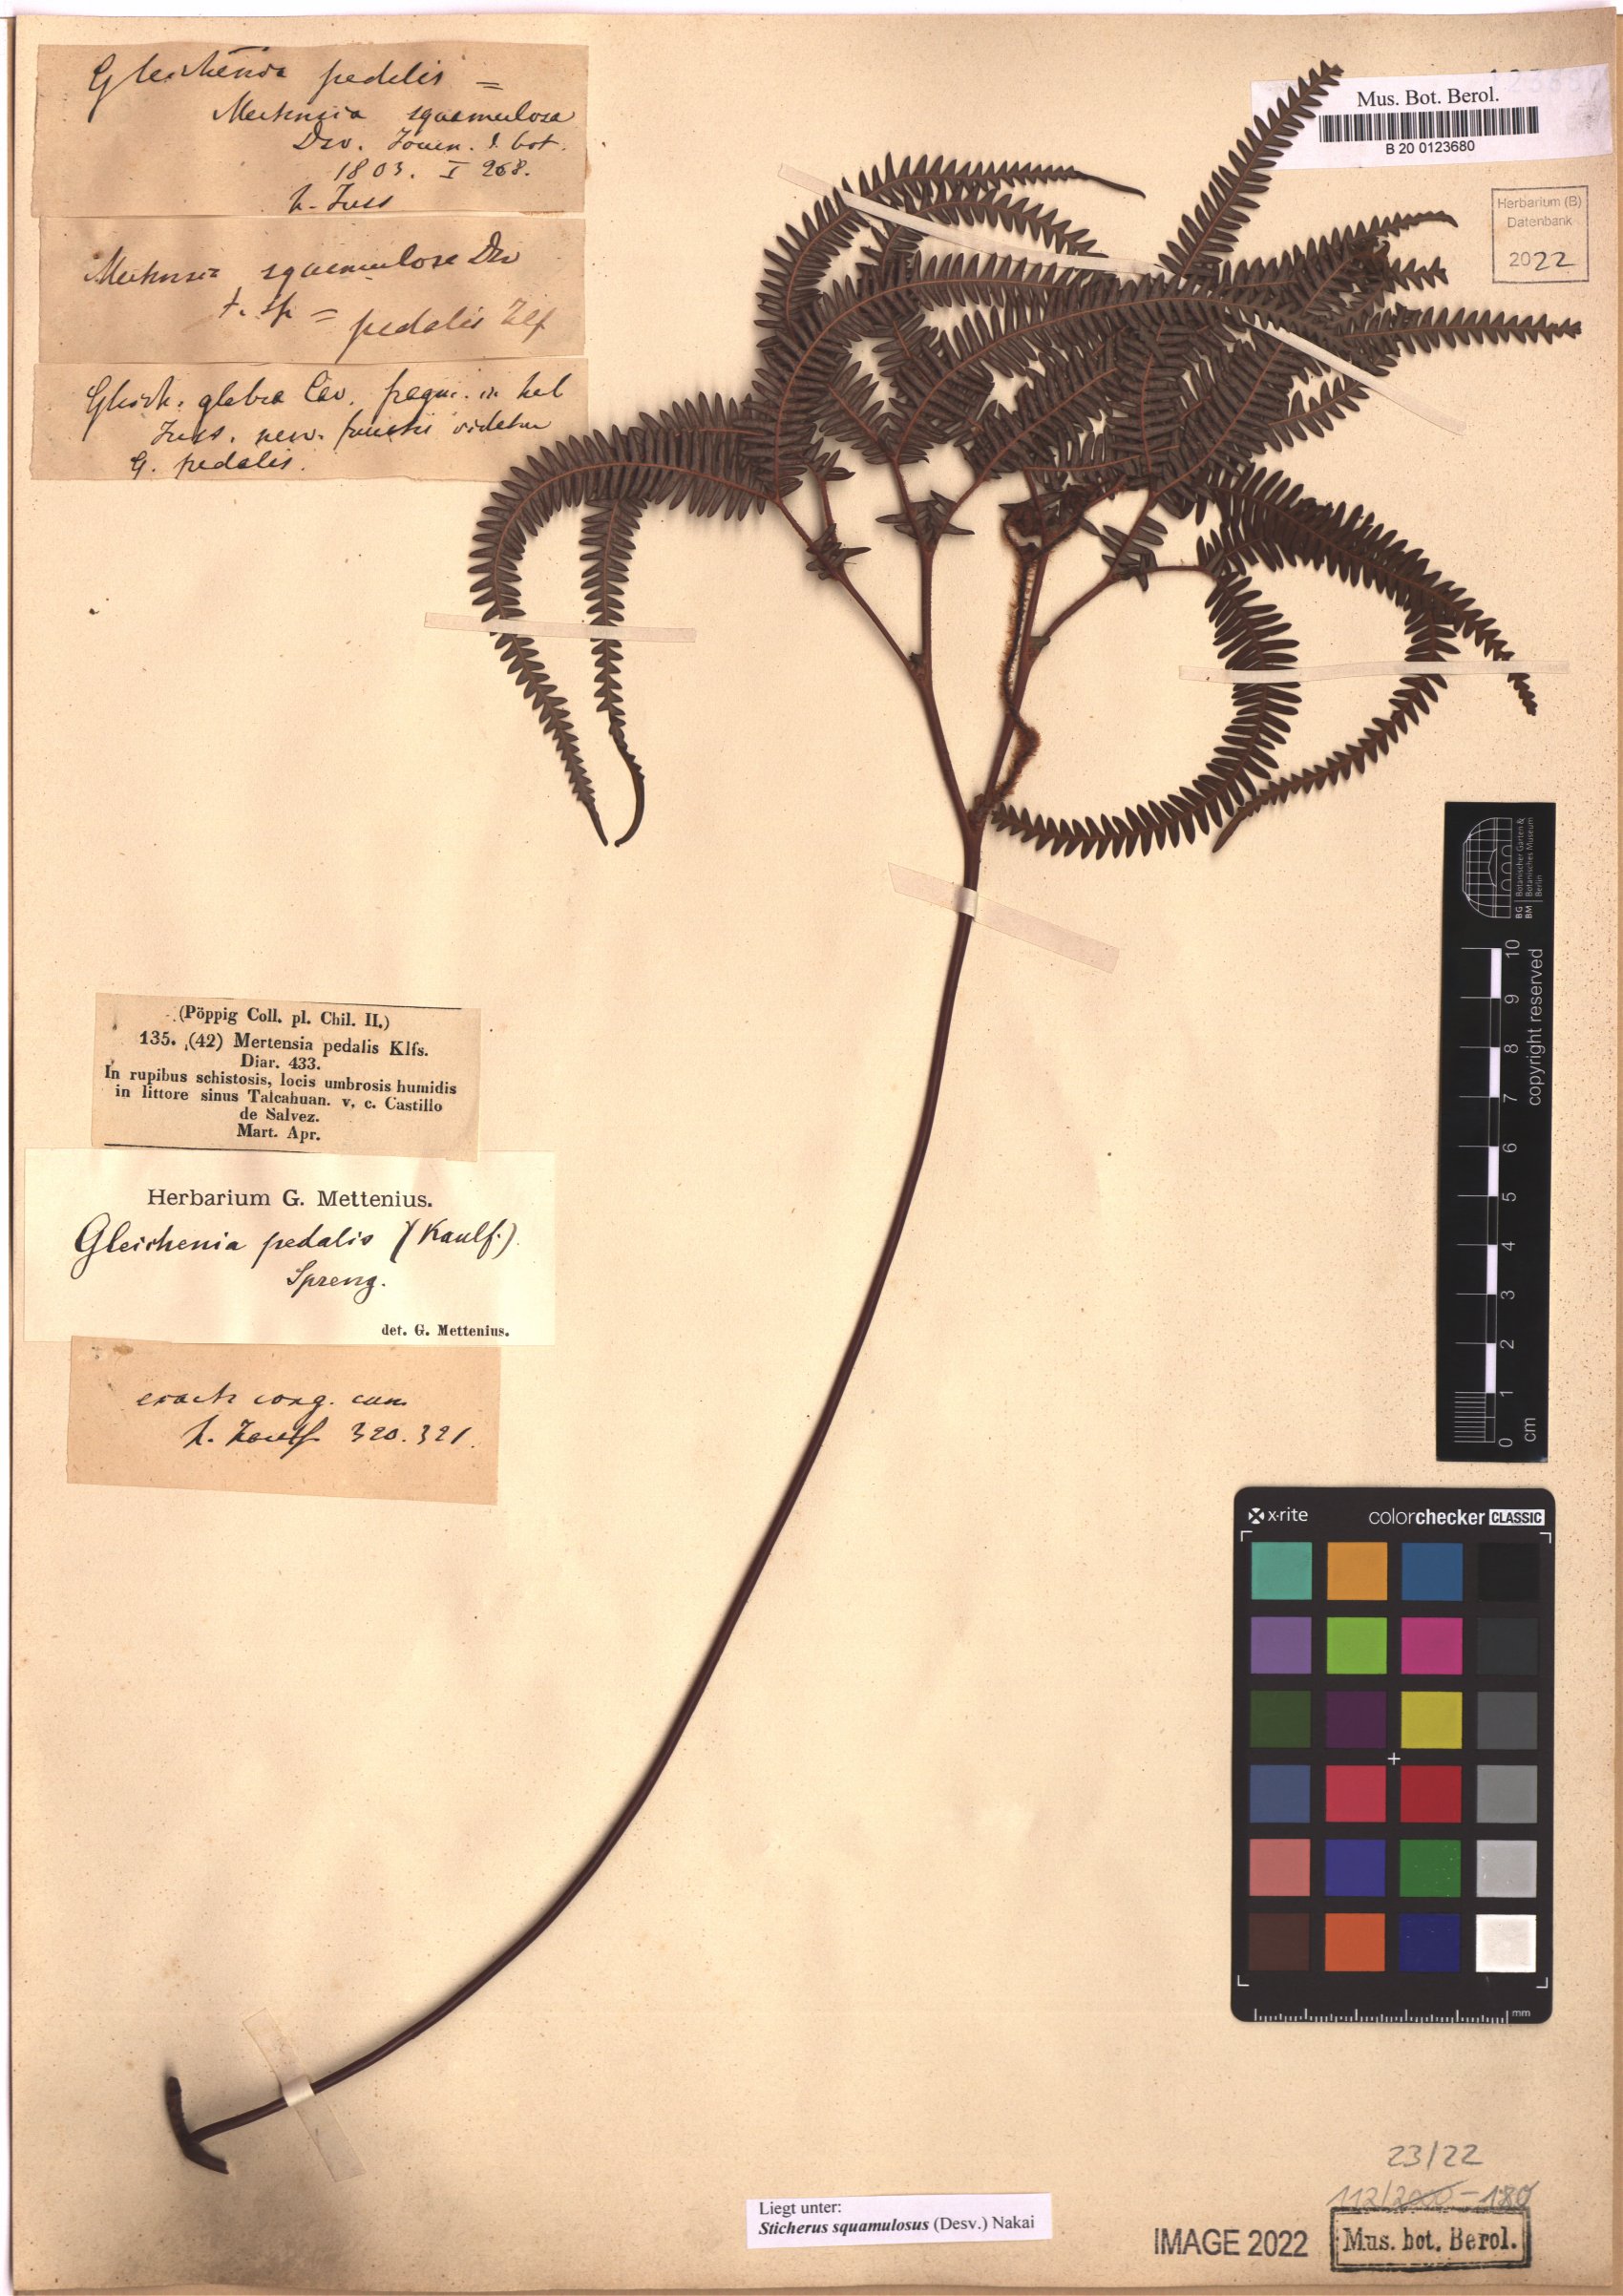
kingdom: Plantae
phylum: Tracheophyta
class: Polypodiopsida
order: Gleicheniales
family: Gleicheniaceae
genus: Sticherus
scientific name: Sticherus squamulosus
